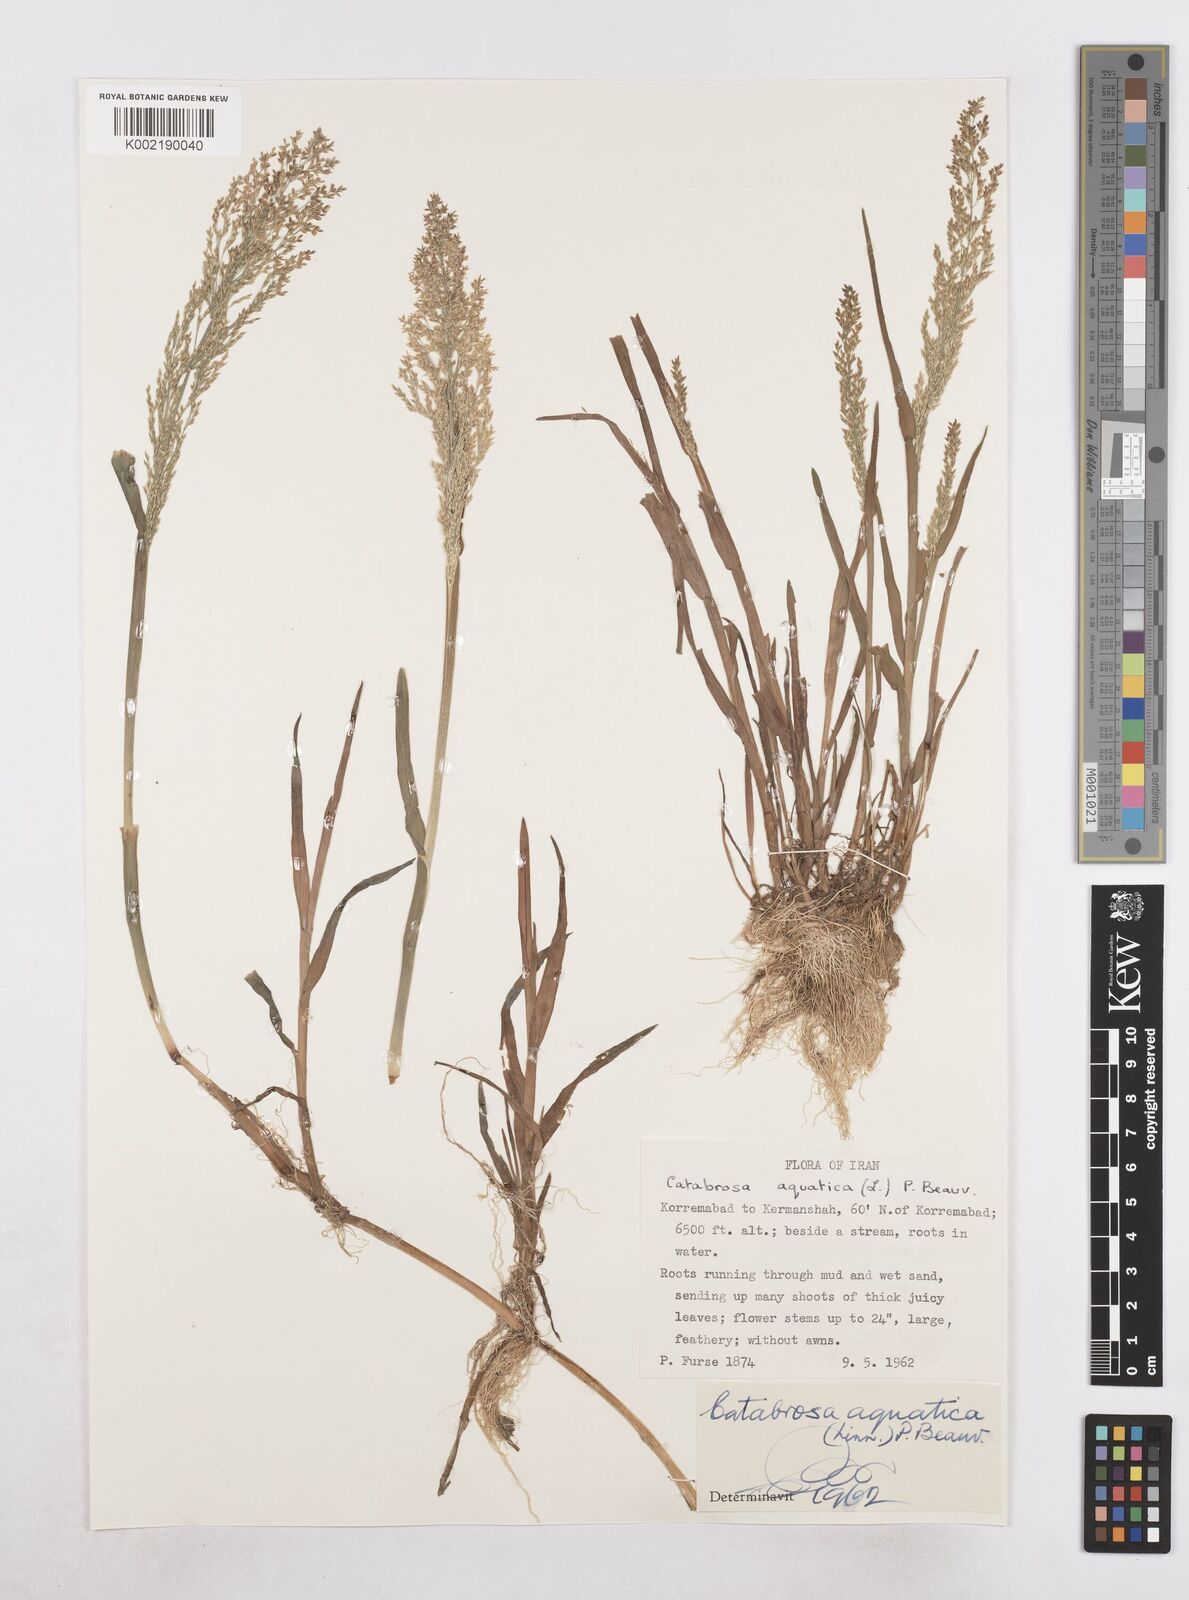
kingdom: Plantae
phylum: Tracheophyta
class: Liliopsida
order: Poales
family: Poaceae
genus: Catabrosa
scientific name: Catabrosa aquatica
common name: Whorl-grass
